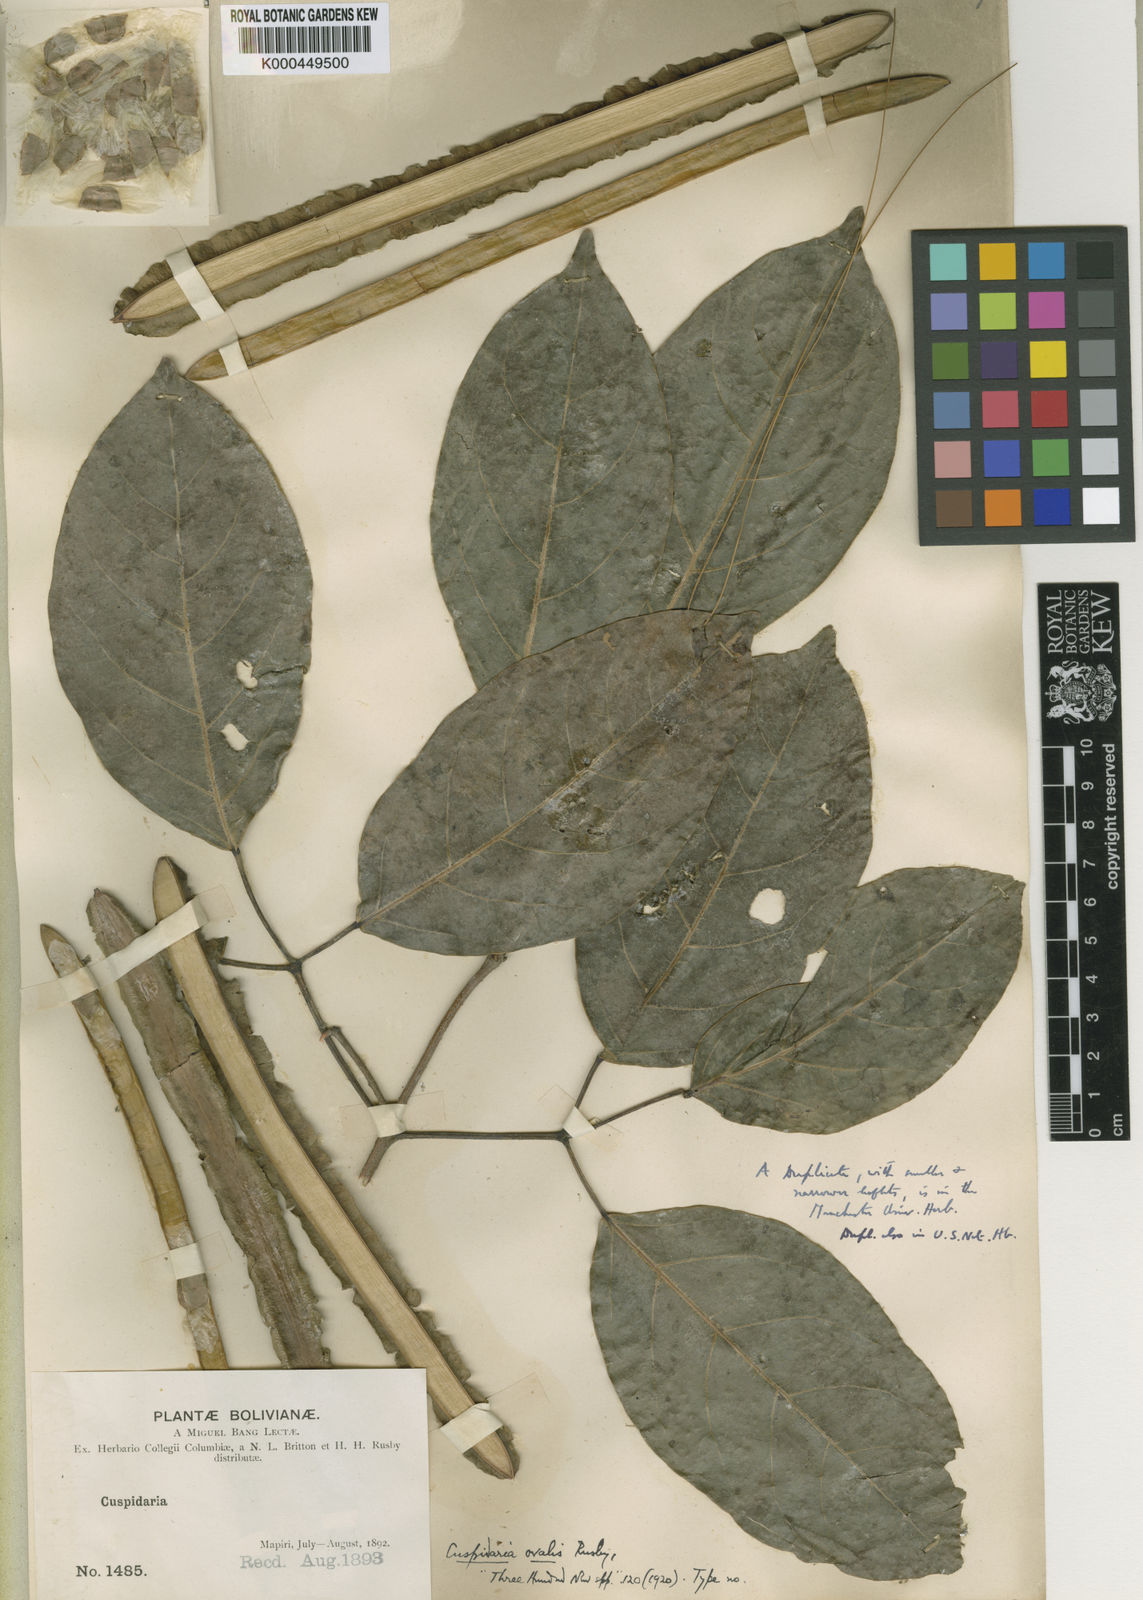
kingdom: Plantae
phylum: Tracheophyta
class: Magnoliopsida
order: Lamiales
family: Bignoniaceae
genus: Tynanthus
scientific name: Tynanthus schumannianus
